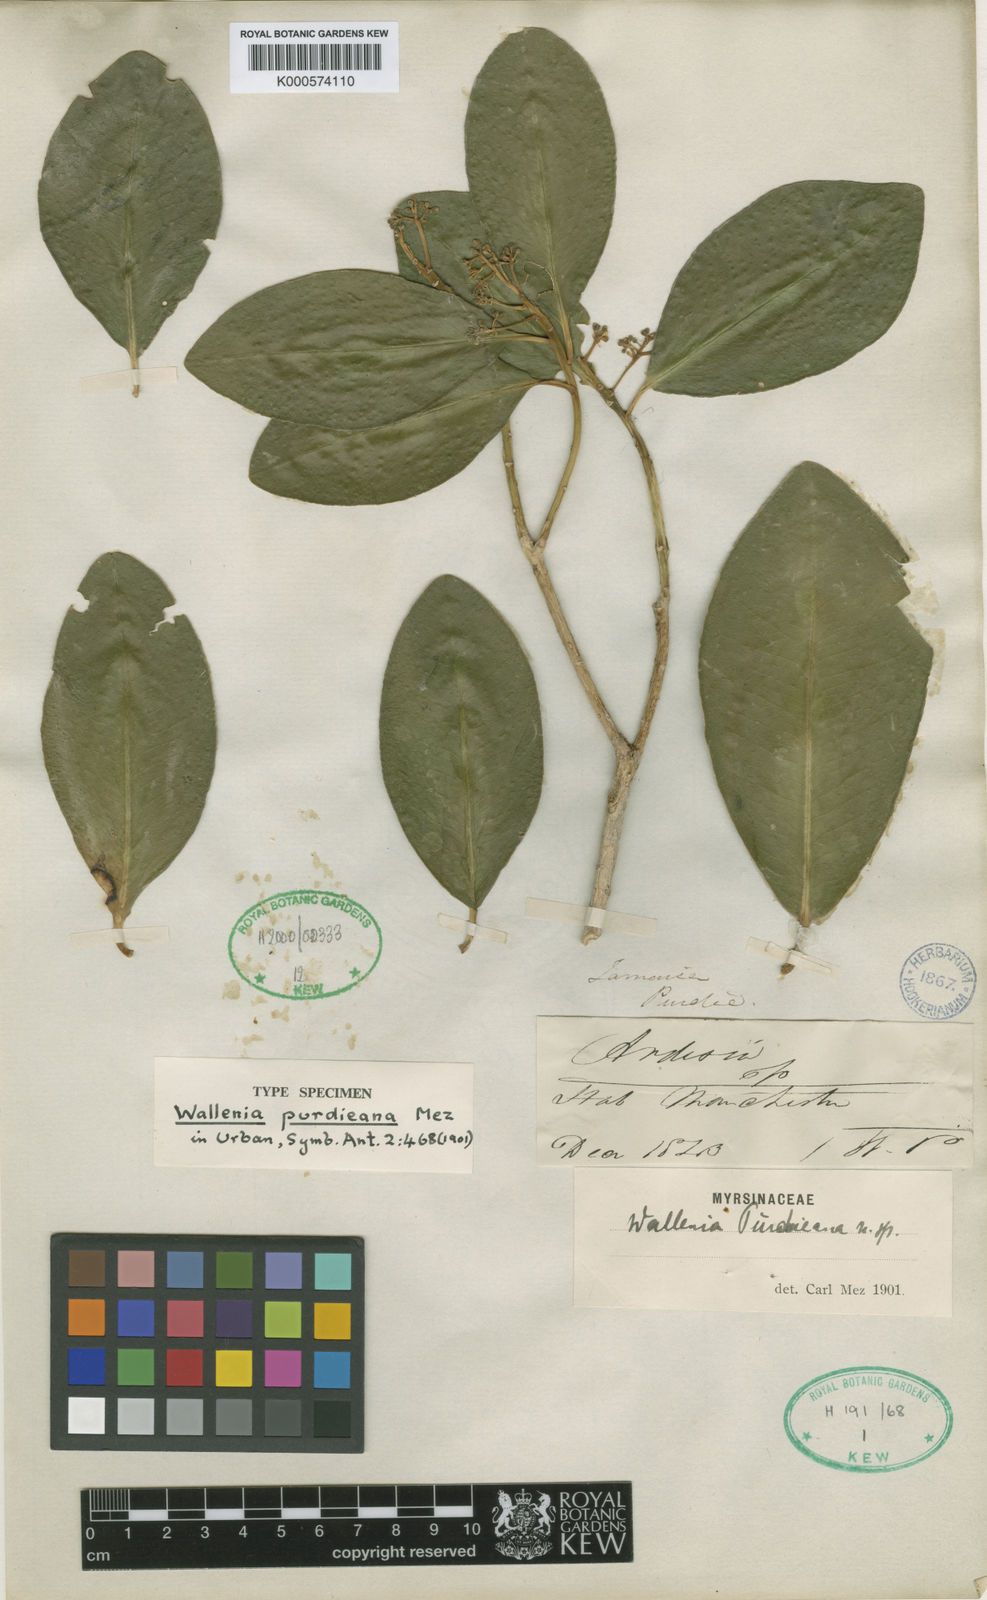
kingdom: Plantae
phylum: Tracheophyta
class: Magnoliopsida
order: Ericales
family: Primulaceae
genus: Wallenia
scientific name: Wallenia purdieana
